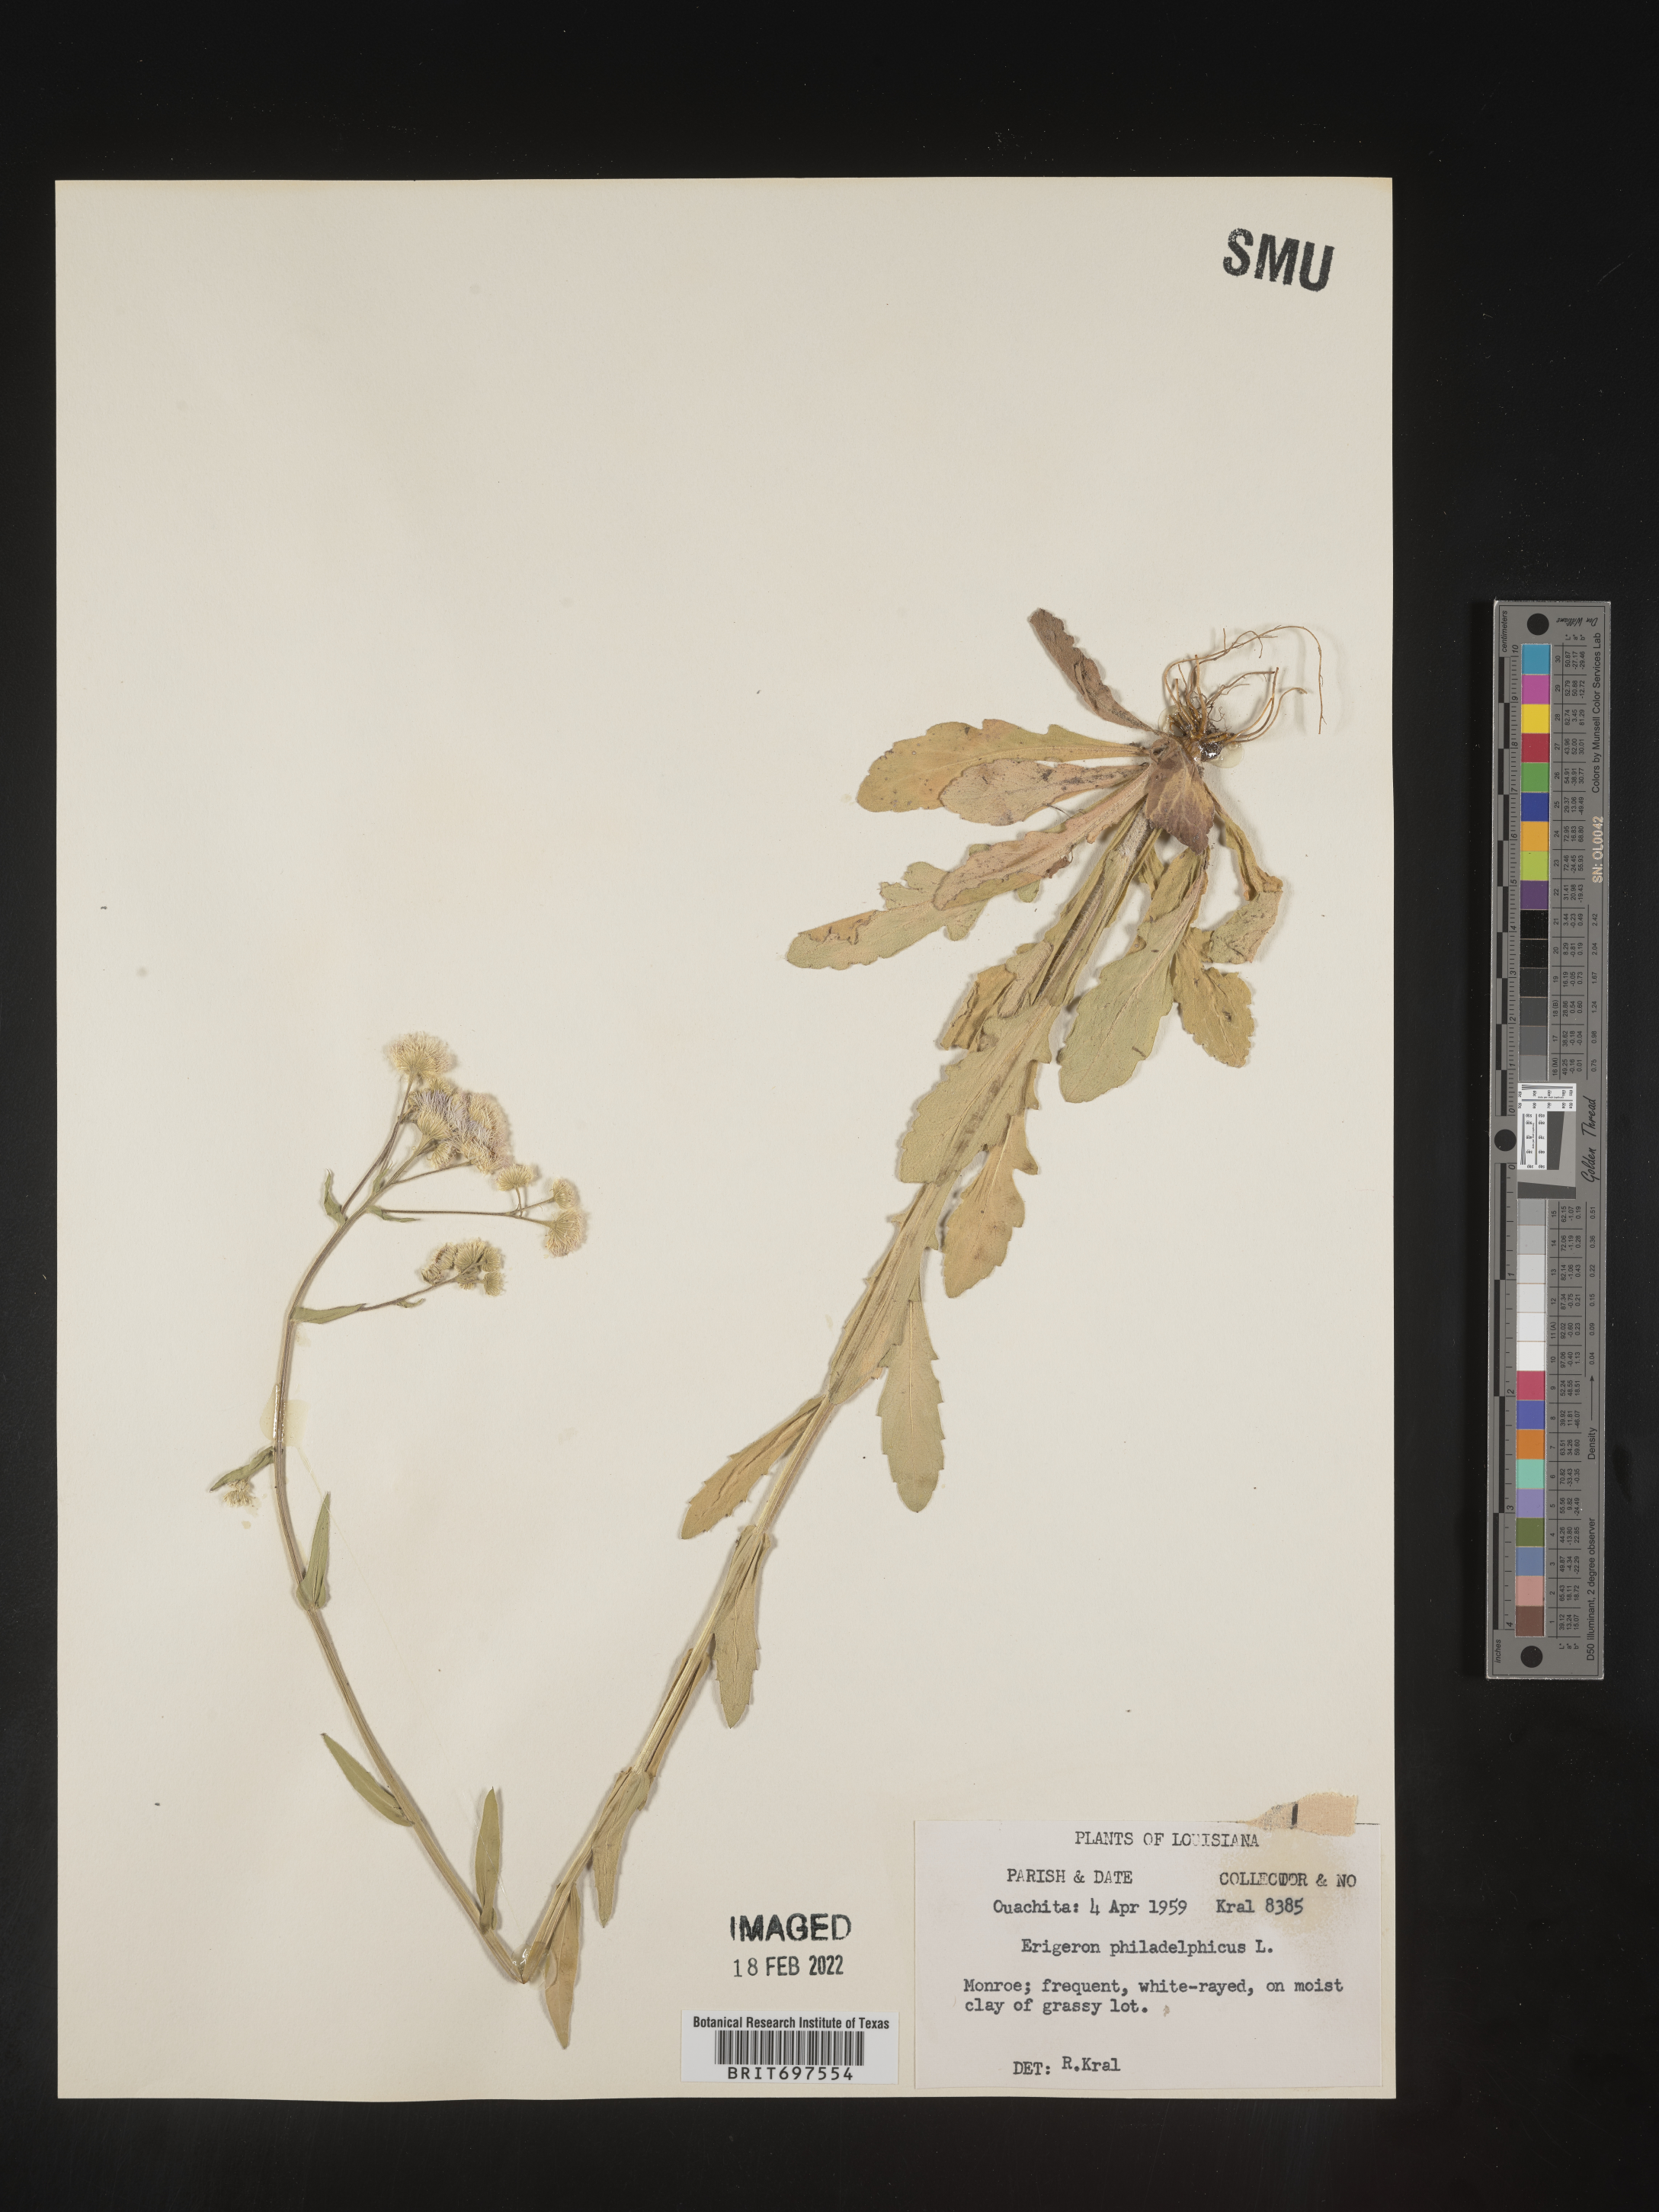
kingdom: Plantae
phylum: Tracheophyta
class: Magnoliopsida
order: Asterales
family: Asteraceae
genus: Erigeron
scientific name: Erigeron philadelphicus
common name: Robin's-plantain
